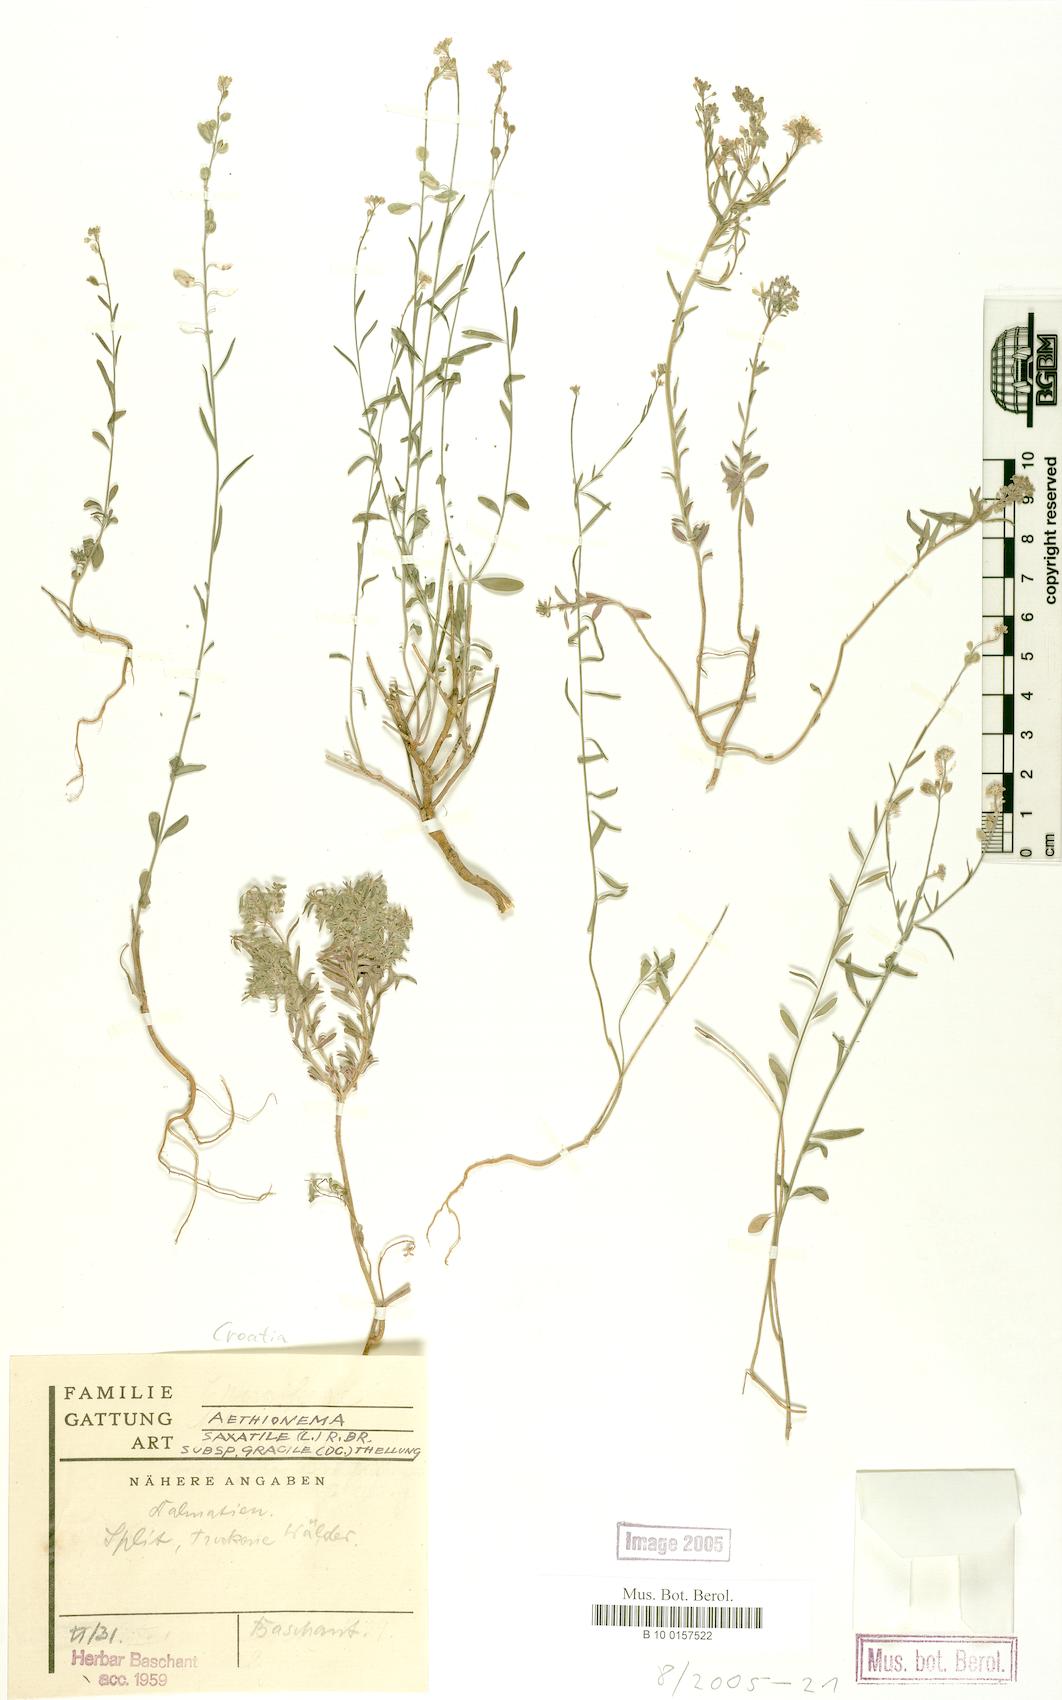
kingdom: Plantae
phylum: Tracheophyta
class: Magnoliopsida
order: Brassicales
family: Brassicaceae
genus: Aethionema
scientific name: Aethionema saxatile
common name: Burnt candytuft
